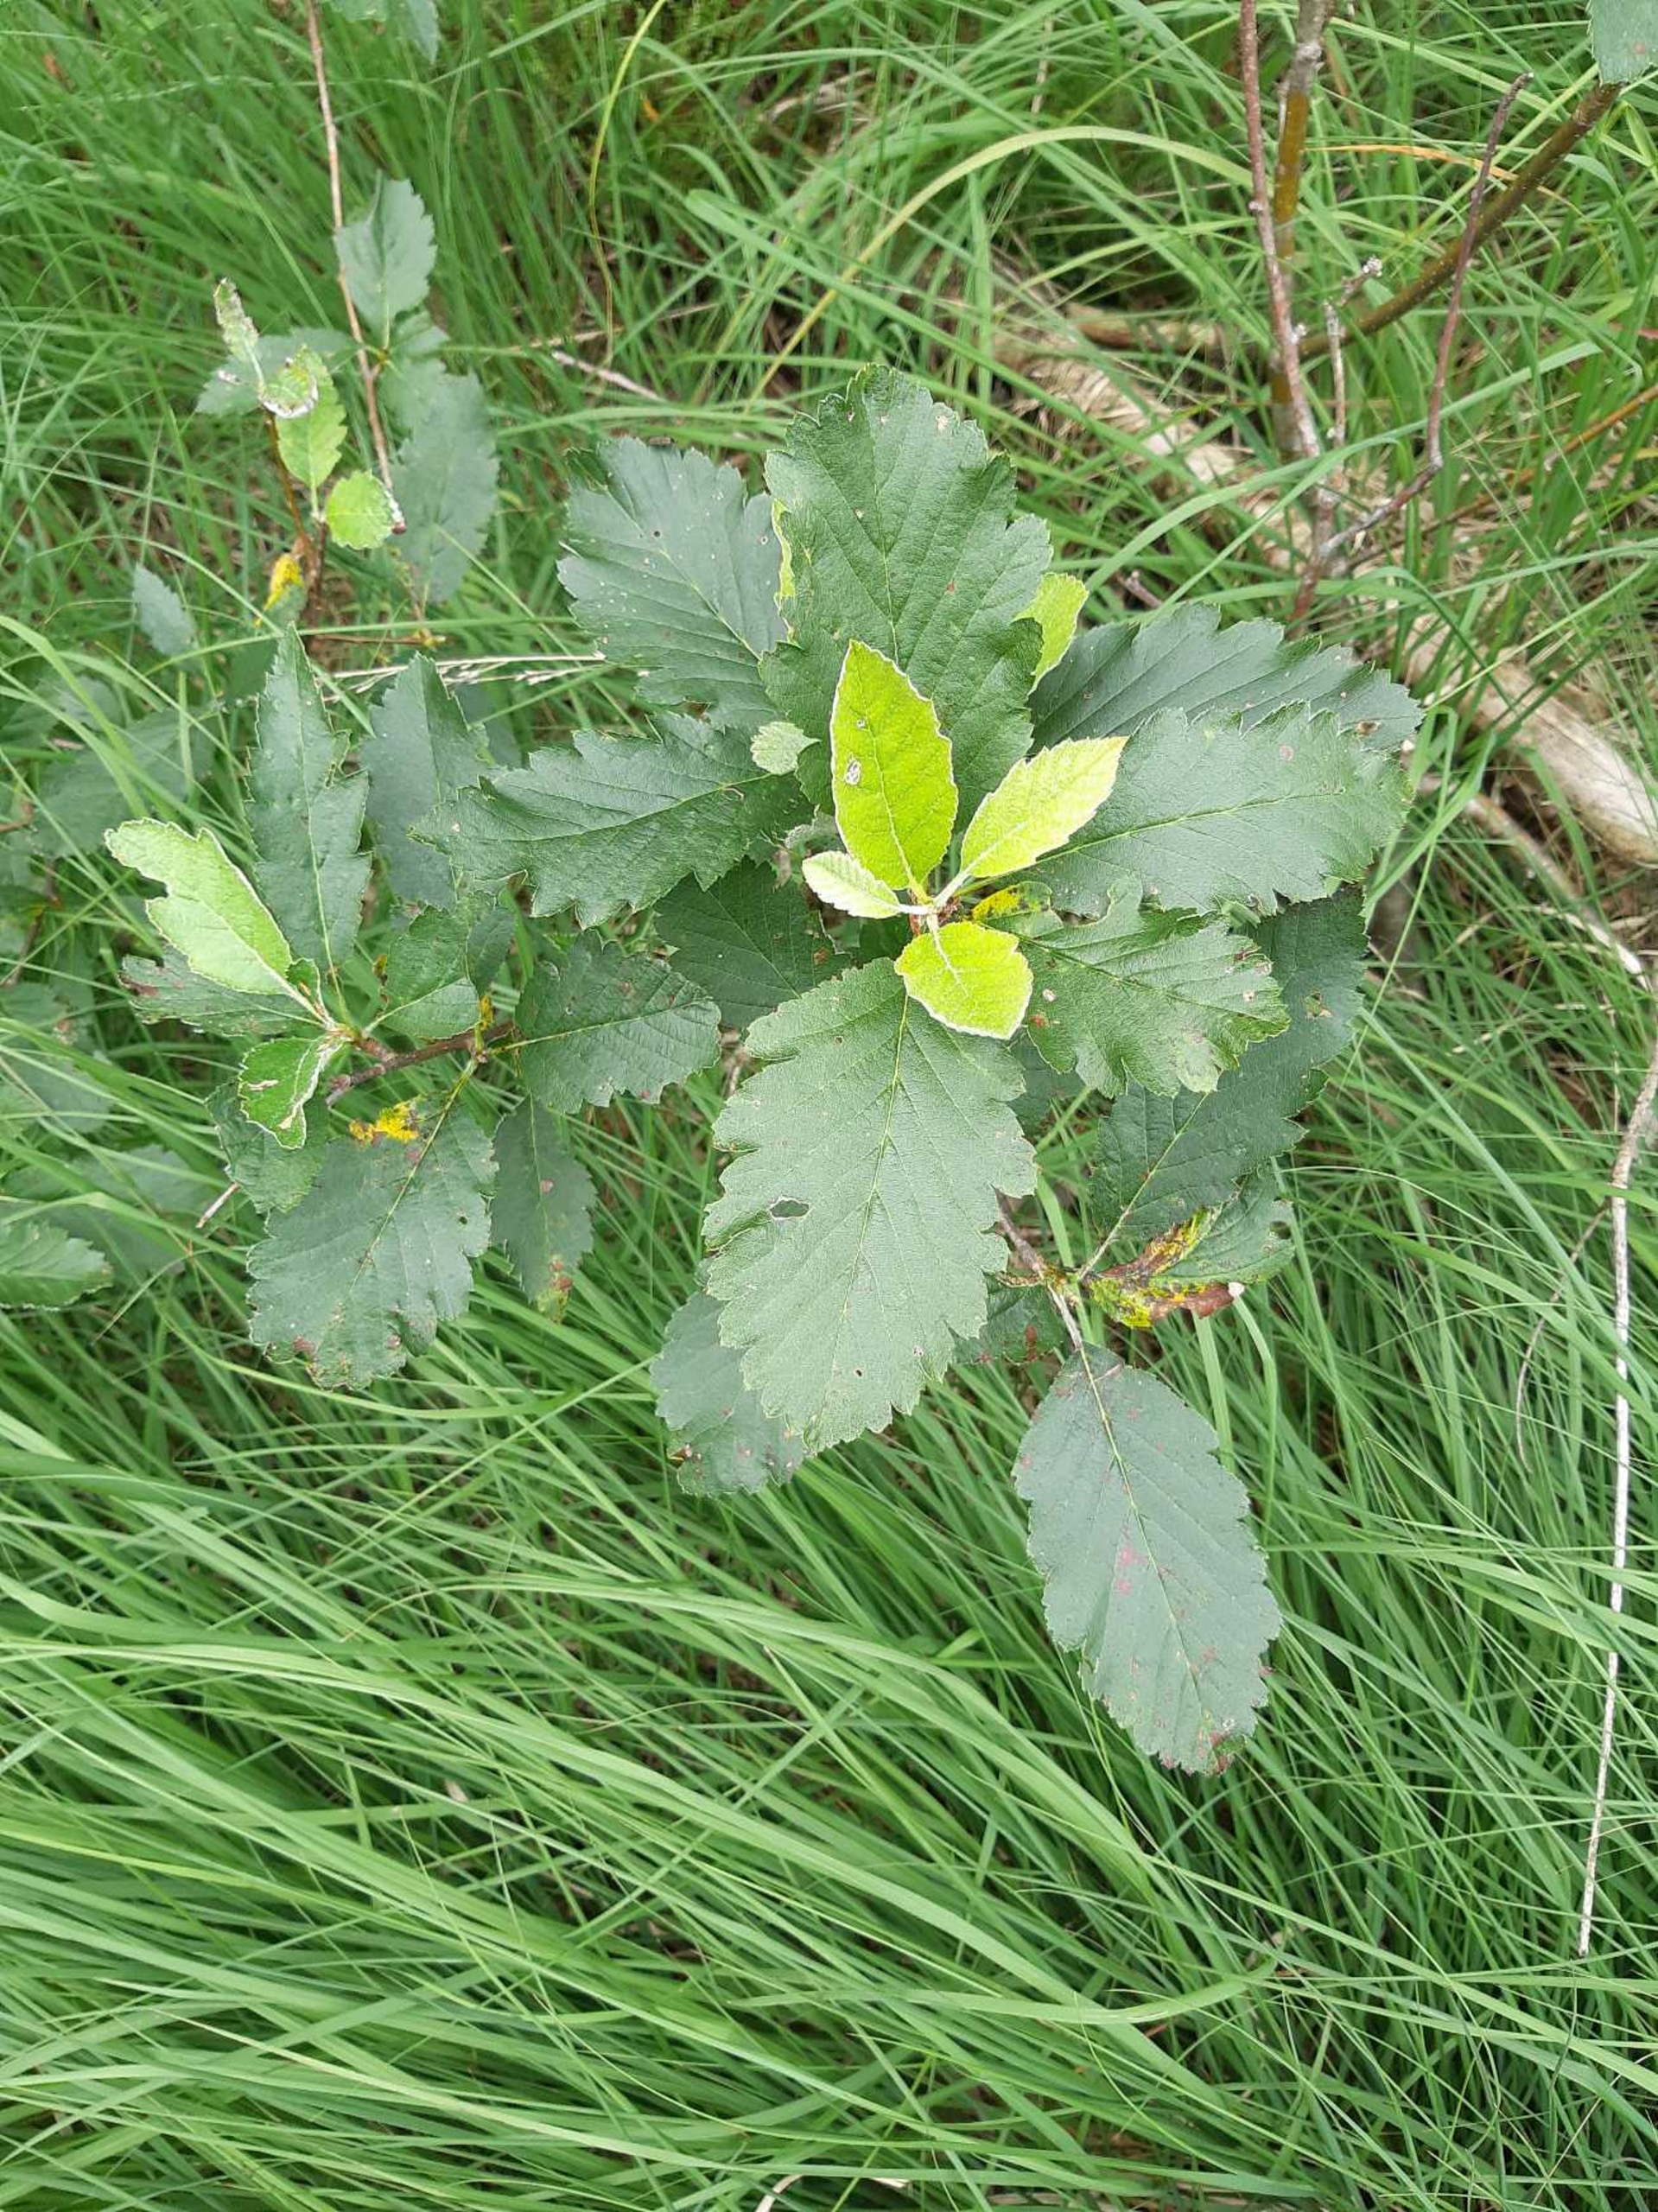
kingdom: Plantae
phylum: Tracheophyta
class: Magnoliopsida
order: Rosales
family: Rosaceae
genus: Scandosorbus
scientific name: Scandosorbus intermedia
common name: Selje-røn
